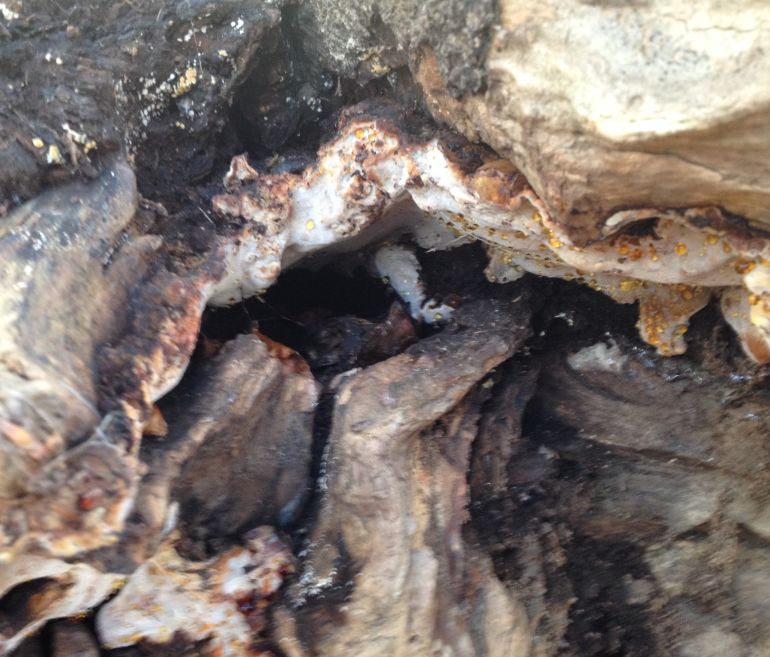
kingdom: Fungi
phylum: Basidiomycota
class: Agaricomycetes
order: Polyporales
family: Ischnodermataceae
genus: Ischnoderma
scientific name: Ischnoderma resinosum
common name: løv-tjæreporesvamp
